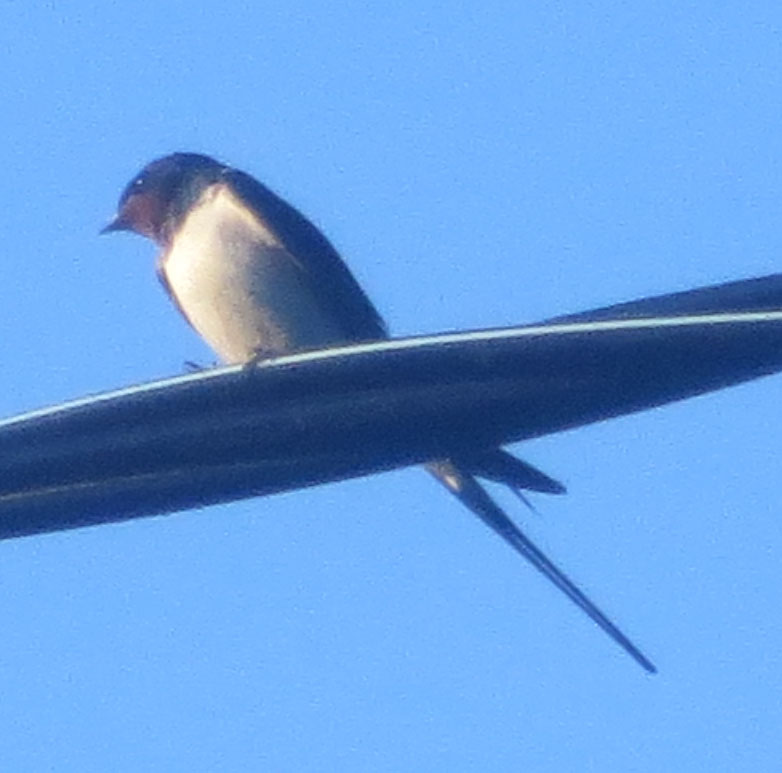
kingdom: Animalia
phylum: Chordata
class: Aves
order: Passeriformes
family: Hirundinidae
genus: Hirundo
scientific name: Hirundo rustica
